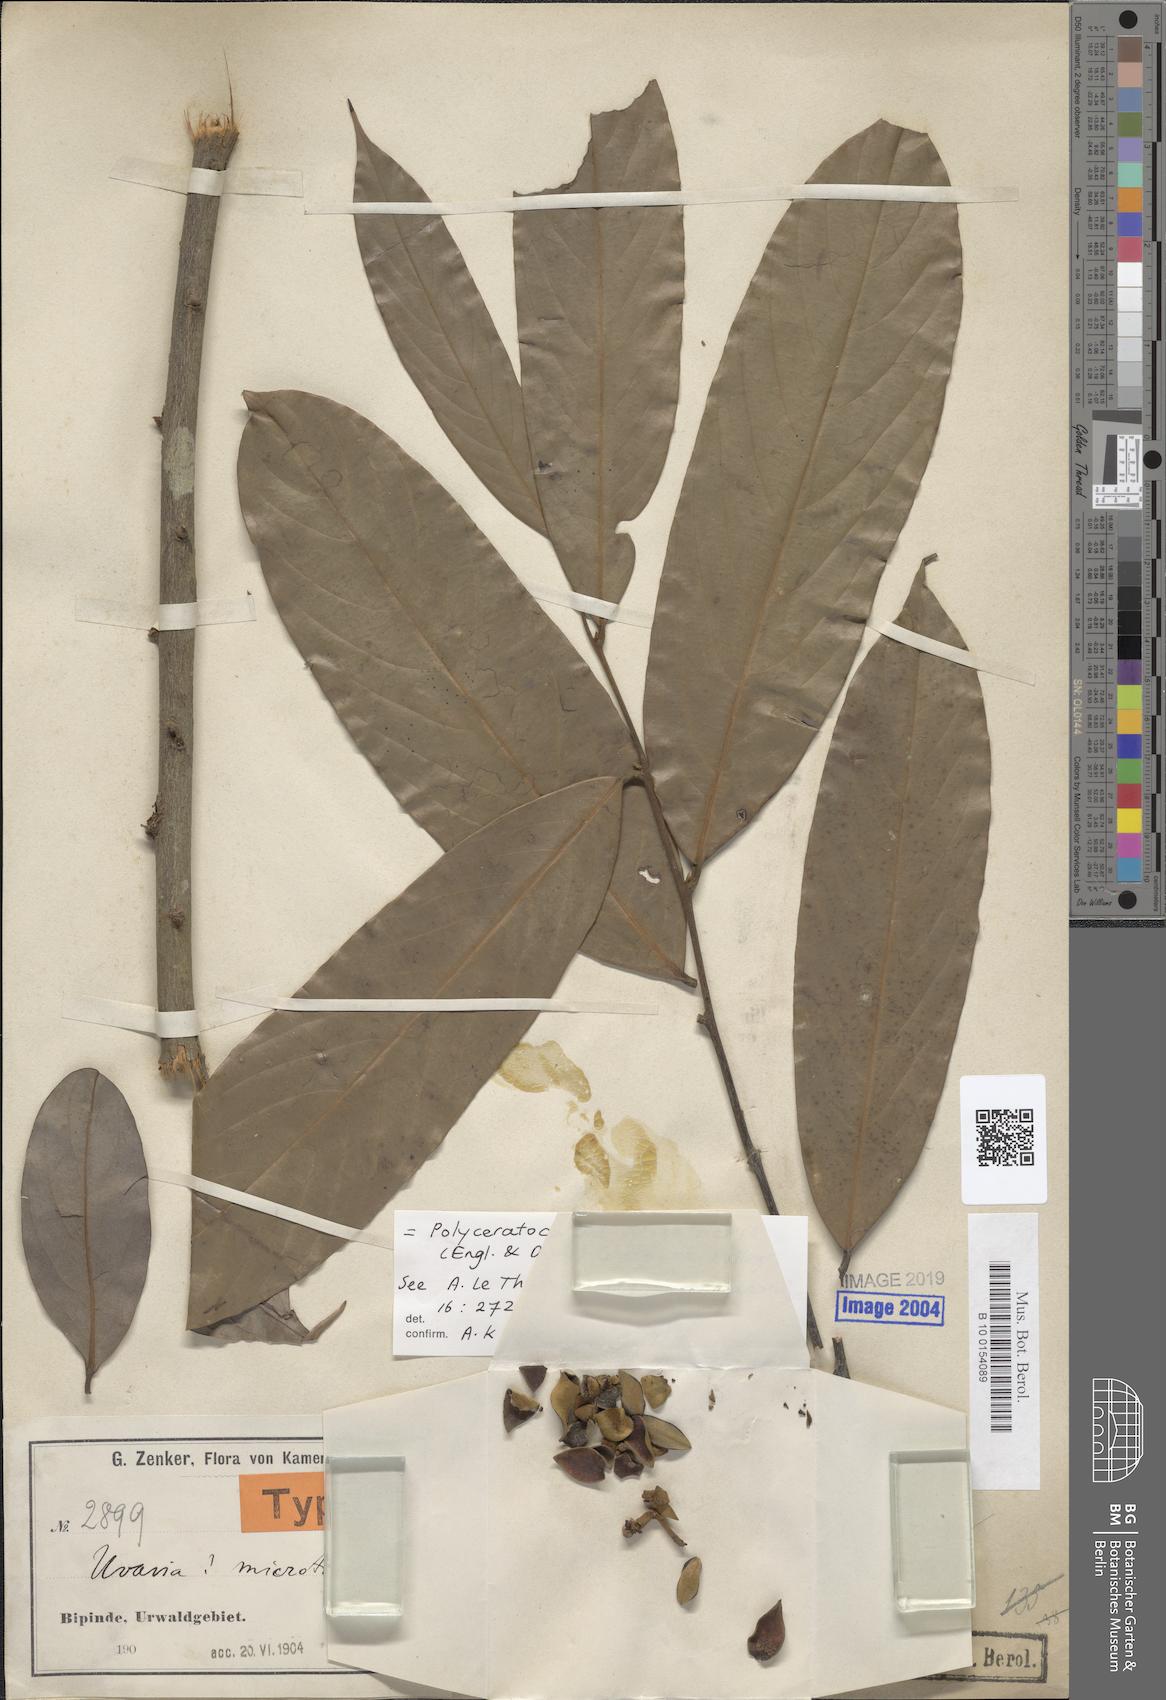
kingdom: Plantae
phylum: Tracheophyta
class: Magnoliopsida
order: Magnoliales
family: Annonaceae
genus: Polyceratocarpus
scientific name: Polyceratocarpus microtrichus
